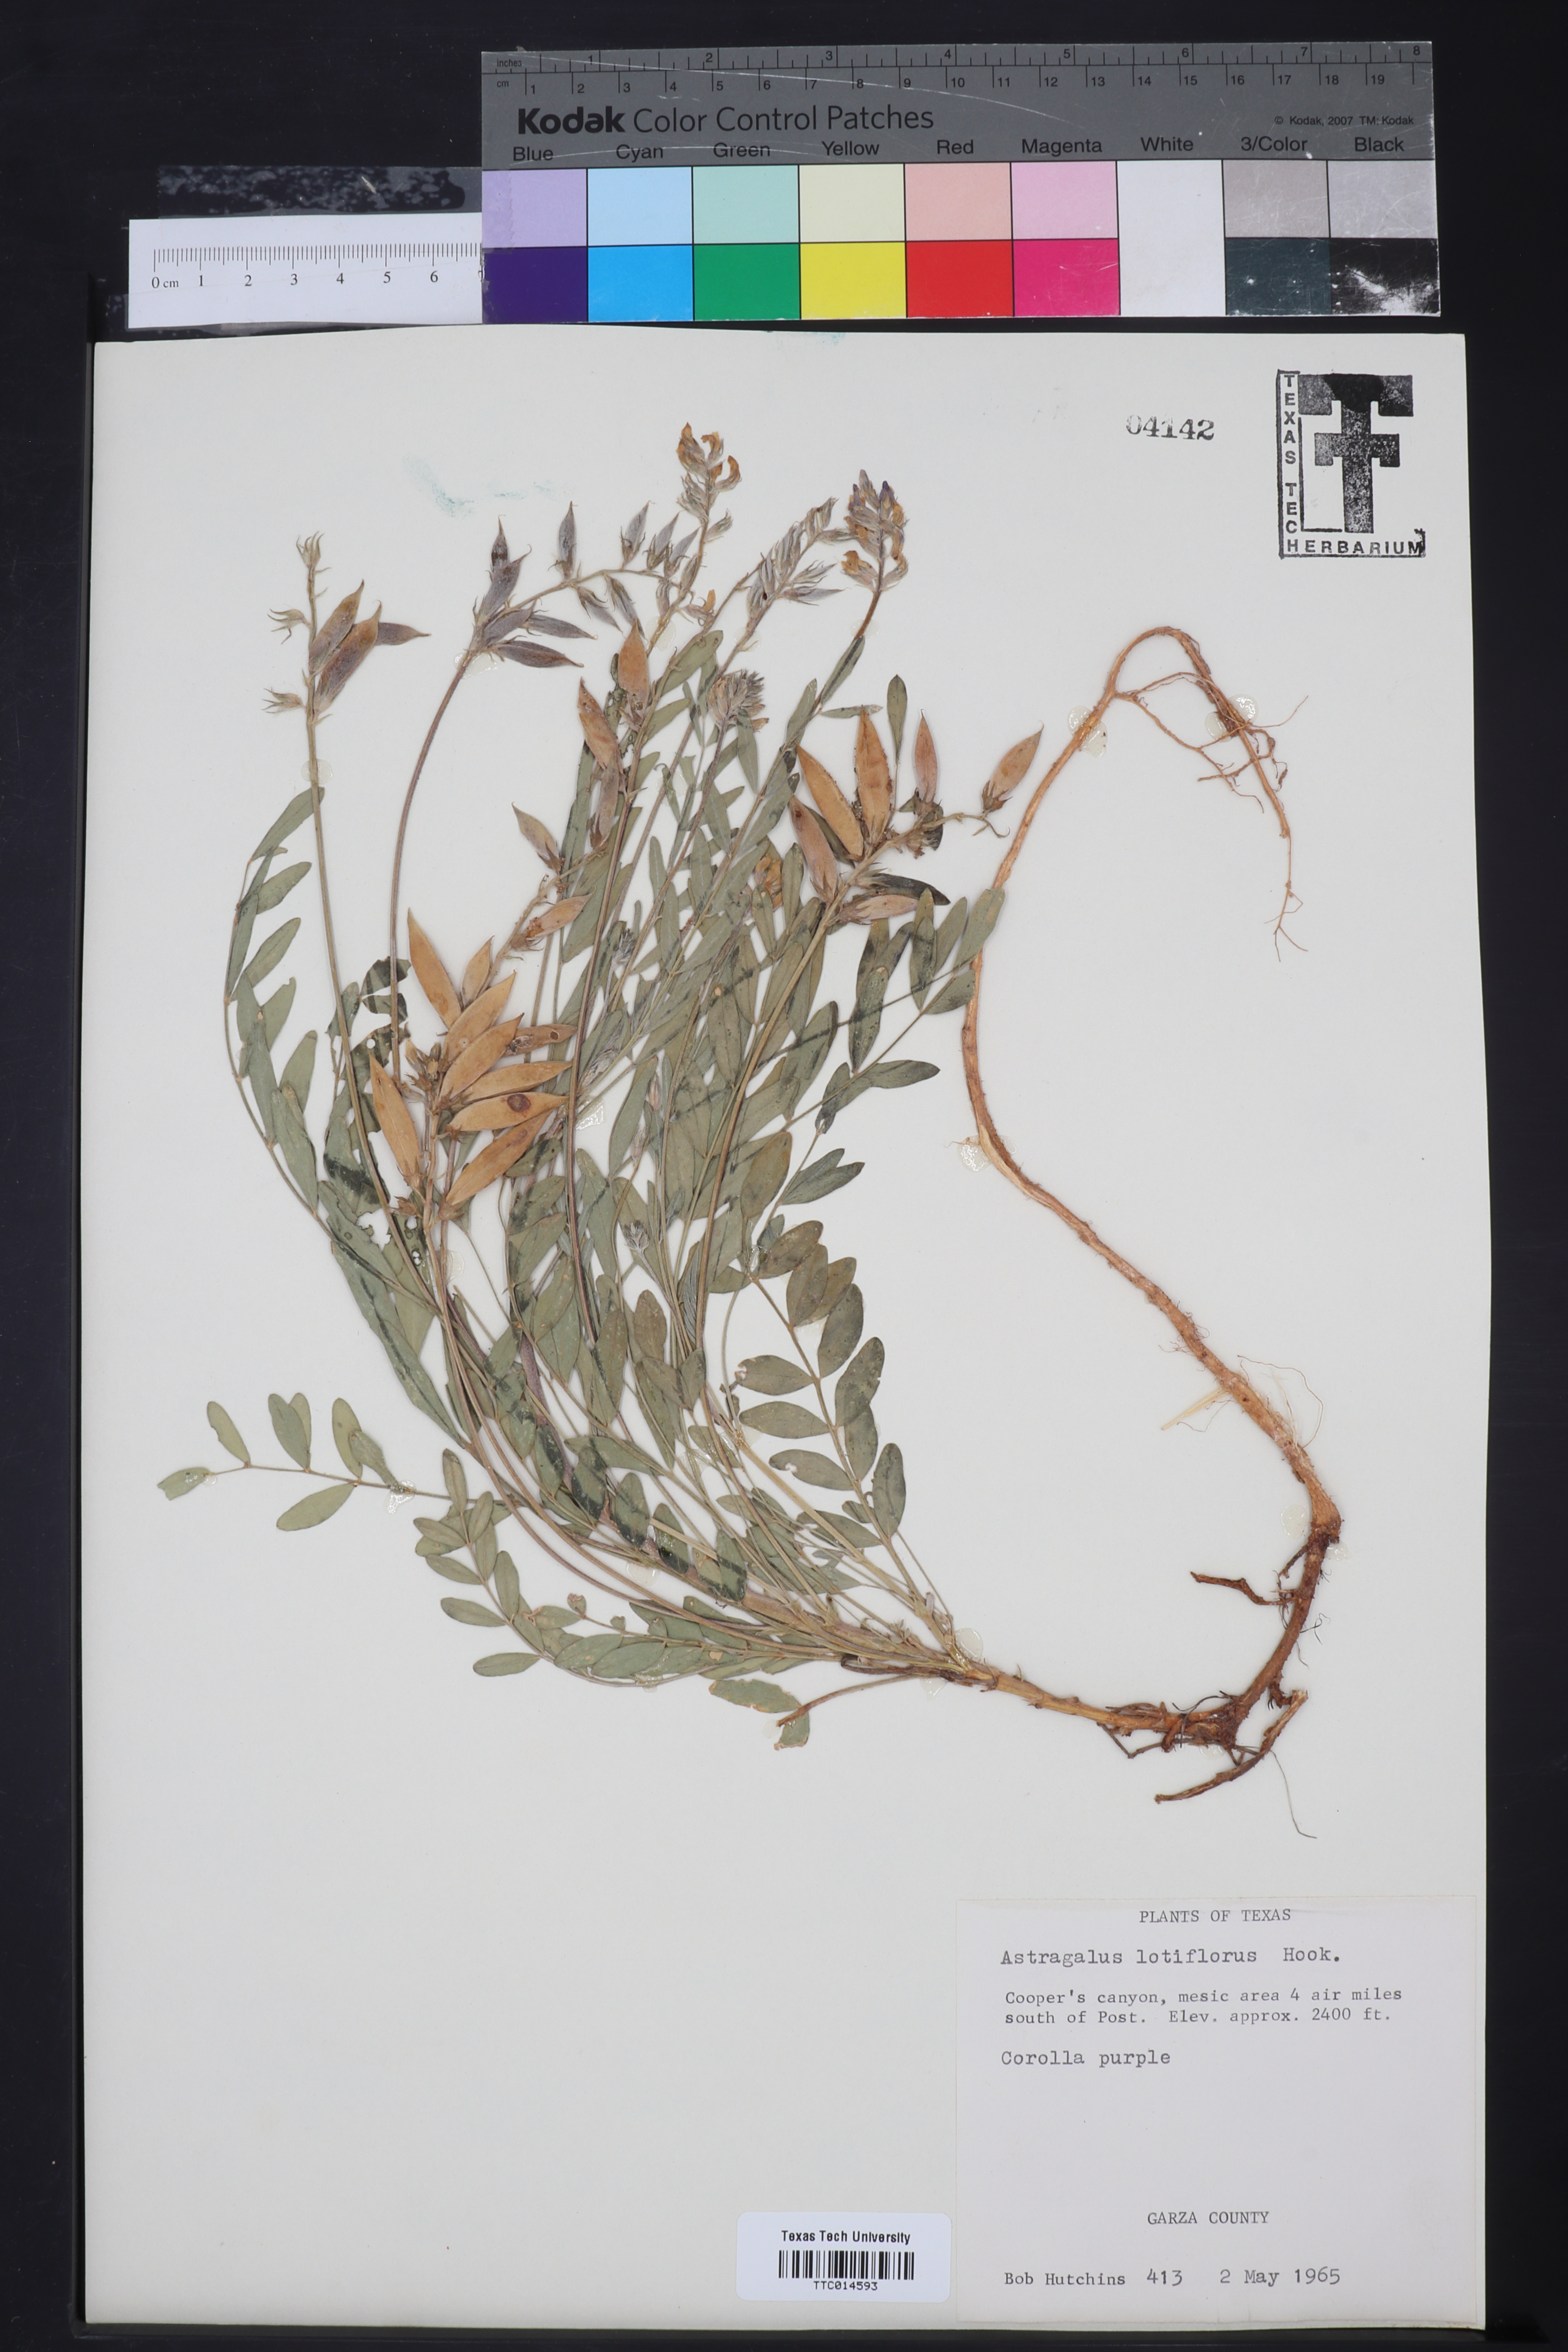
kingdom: Plantae
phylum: Tracheophyta
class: Magnoliopsida
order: Fabales
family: Fabaceae
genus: Astragalus
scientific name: Astragalus lotiflorus
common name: Lotus milk-vetch
